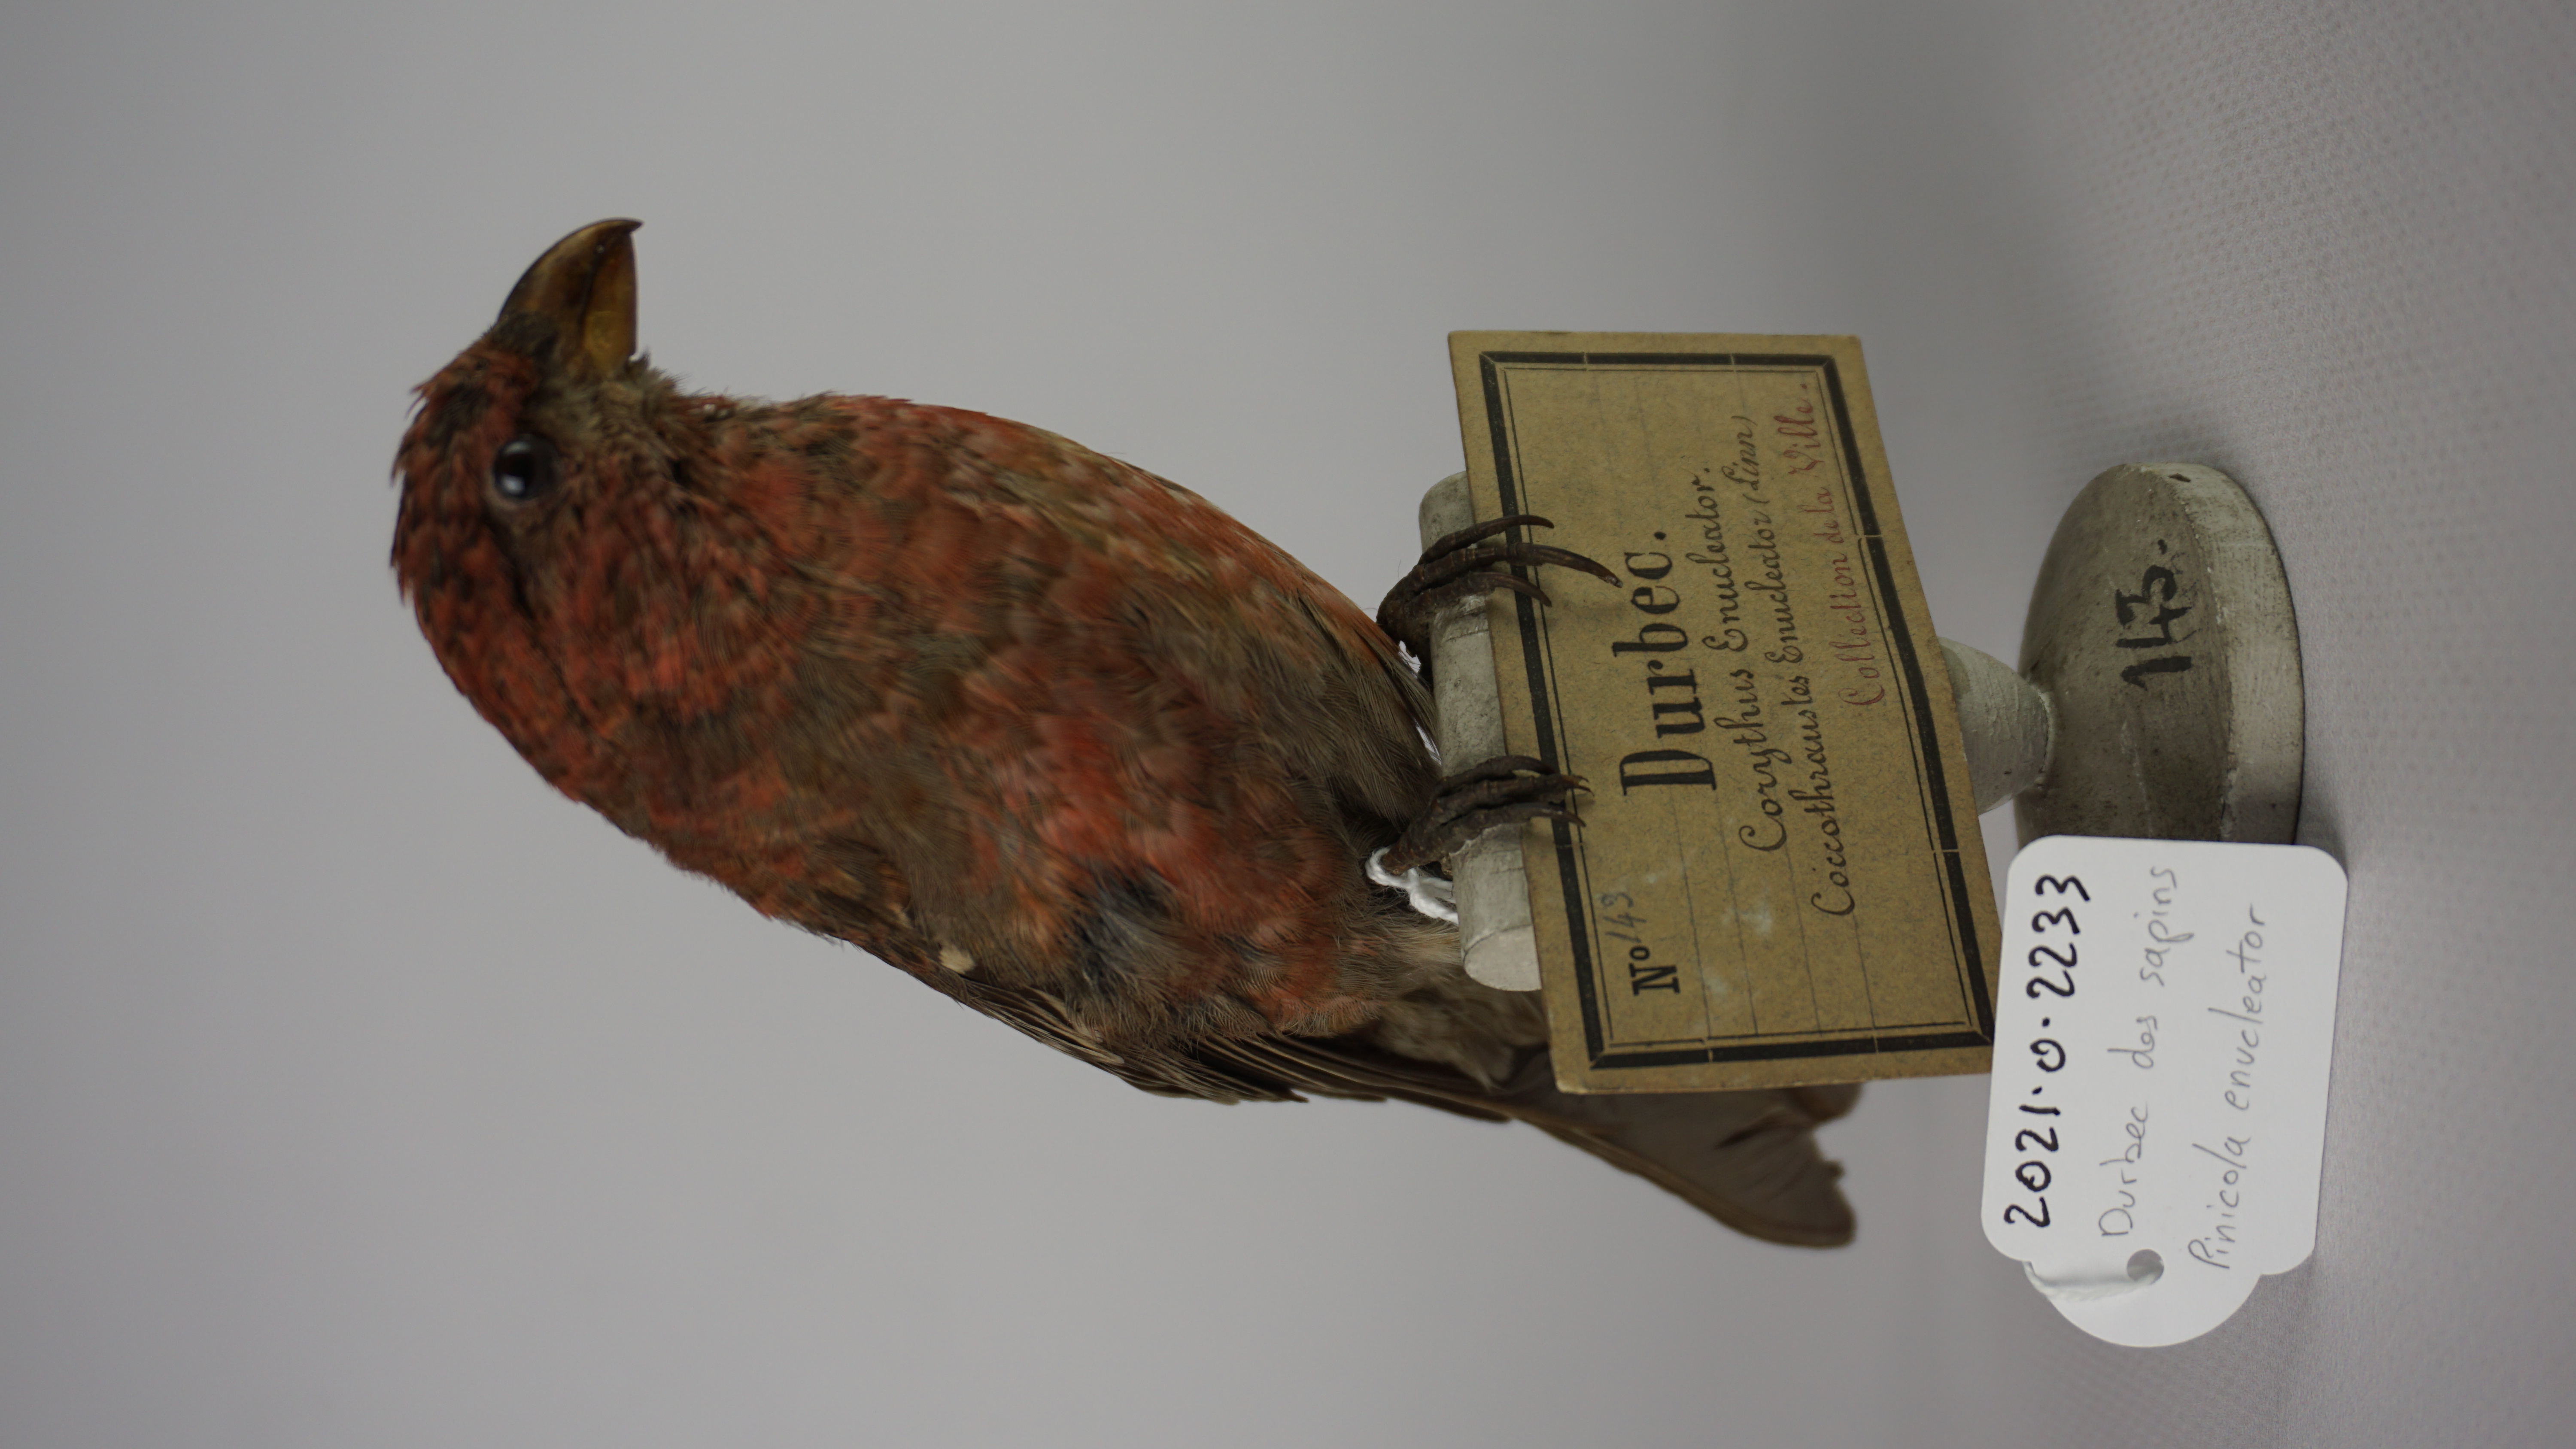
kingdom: Animalia
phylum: Chordata
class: Aves
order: Passeriformes
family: Fringillidae
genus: Pinicola
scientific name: Pinicola enucleator
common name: Pine grosbeak
